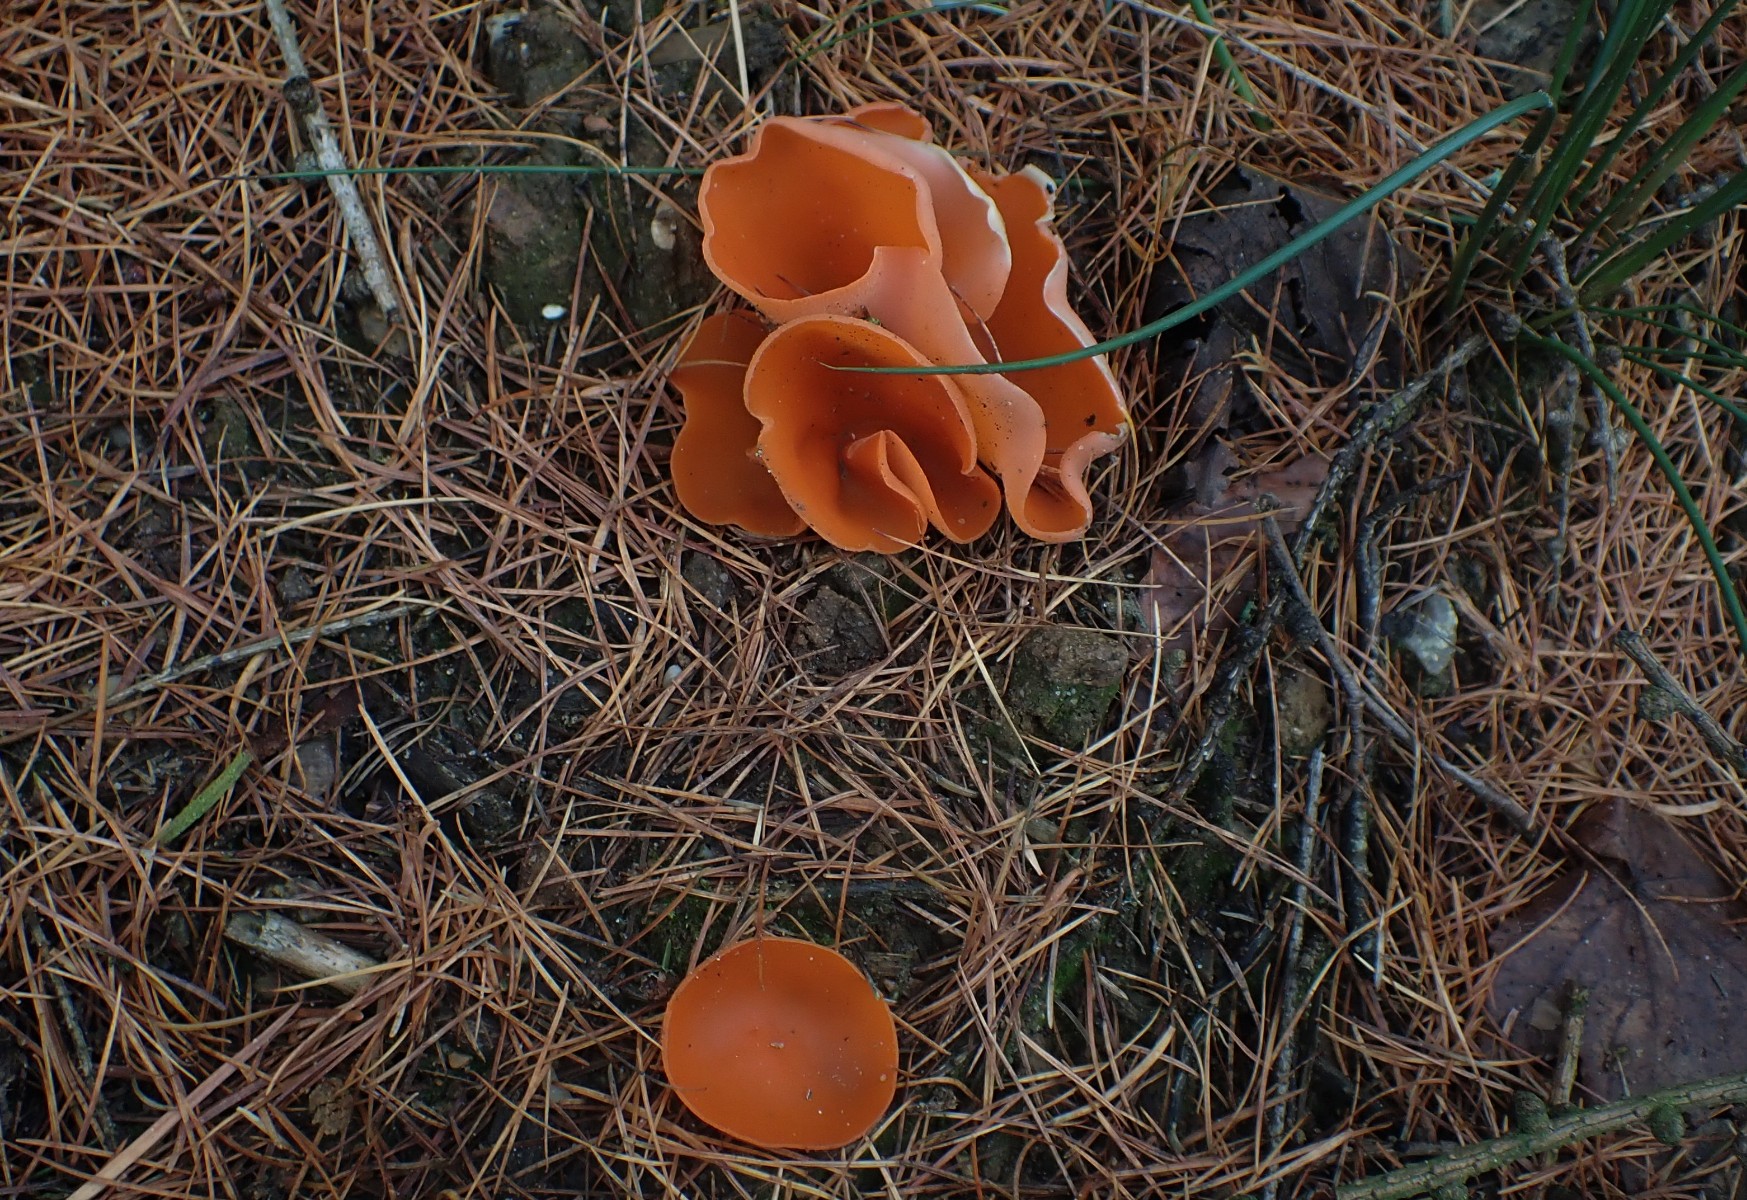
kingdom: Fungi
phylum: Ascomycota
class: Pezizomycetes
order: Pezizales
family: Pyronemataceae
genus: Aleuria
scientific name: Aleuria aurantia
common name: almindelig orangebæger
